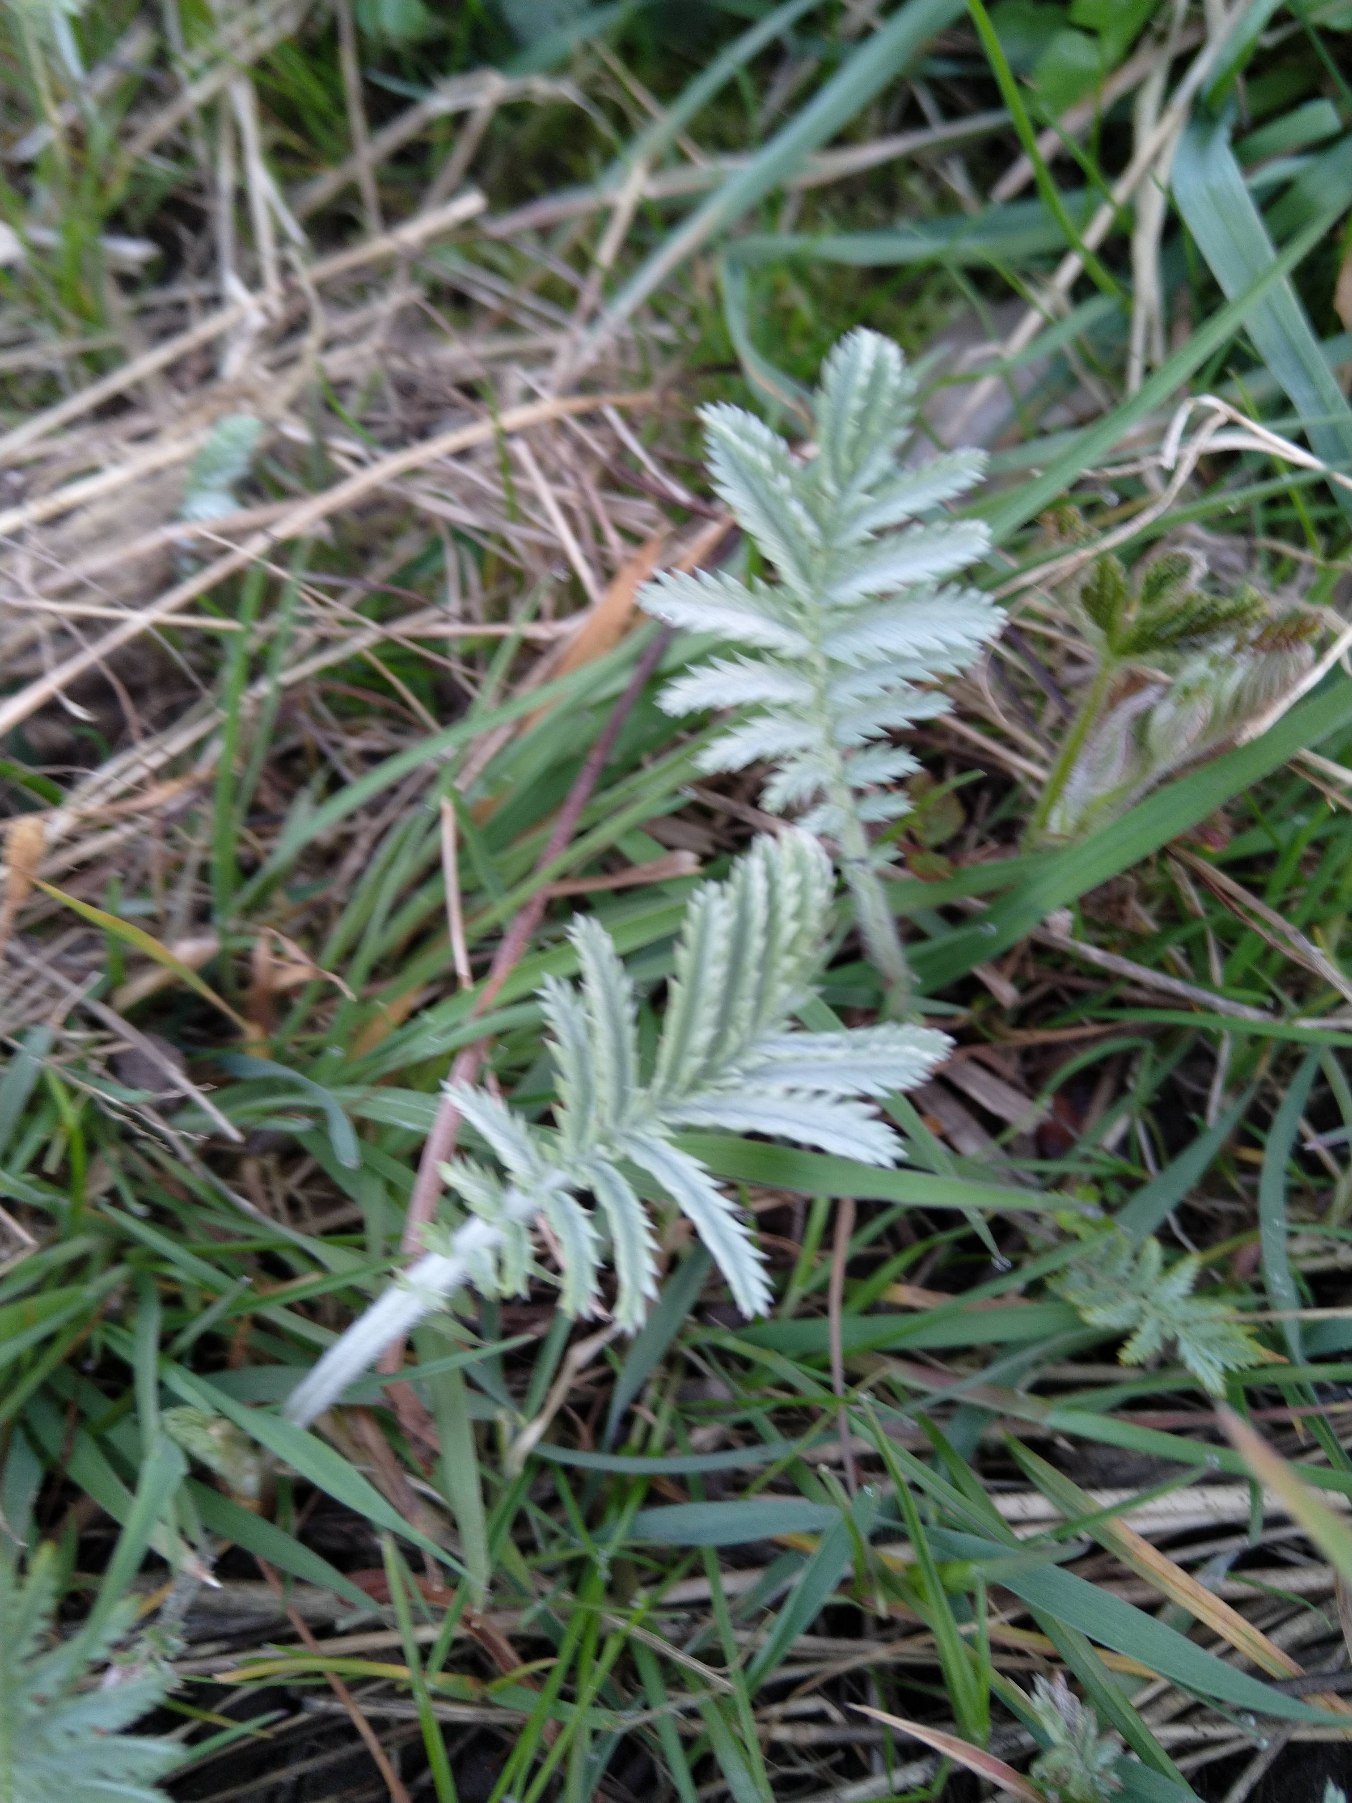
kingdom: Plantae
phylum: Tracheophyta
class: Magnoliopsida
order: Rosales
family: Rosaceae
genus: Argentina
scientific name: Argentina anserina
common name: Gåsepotentil
